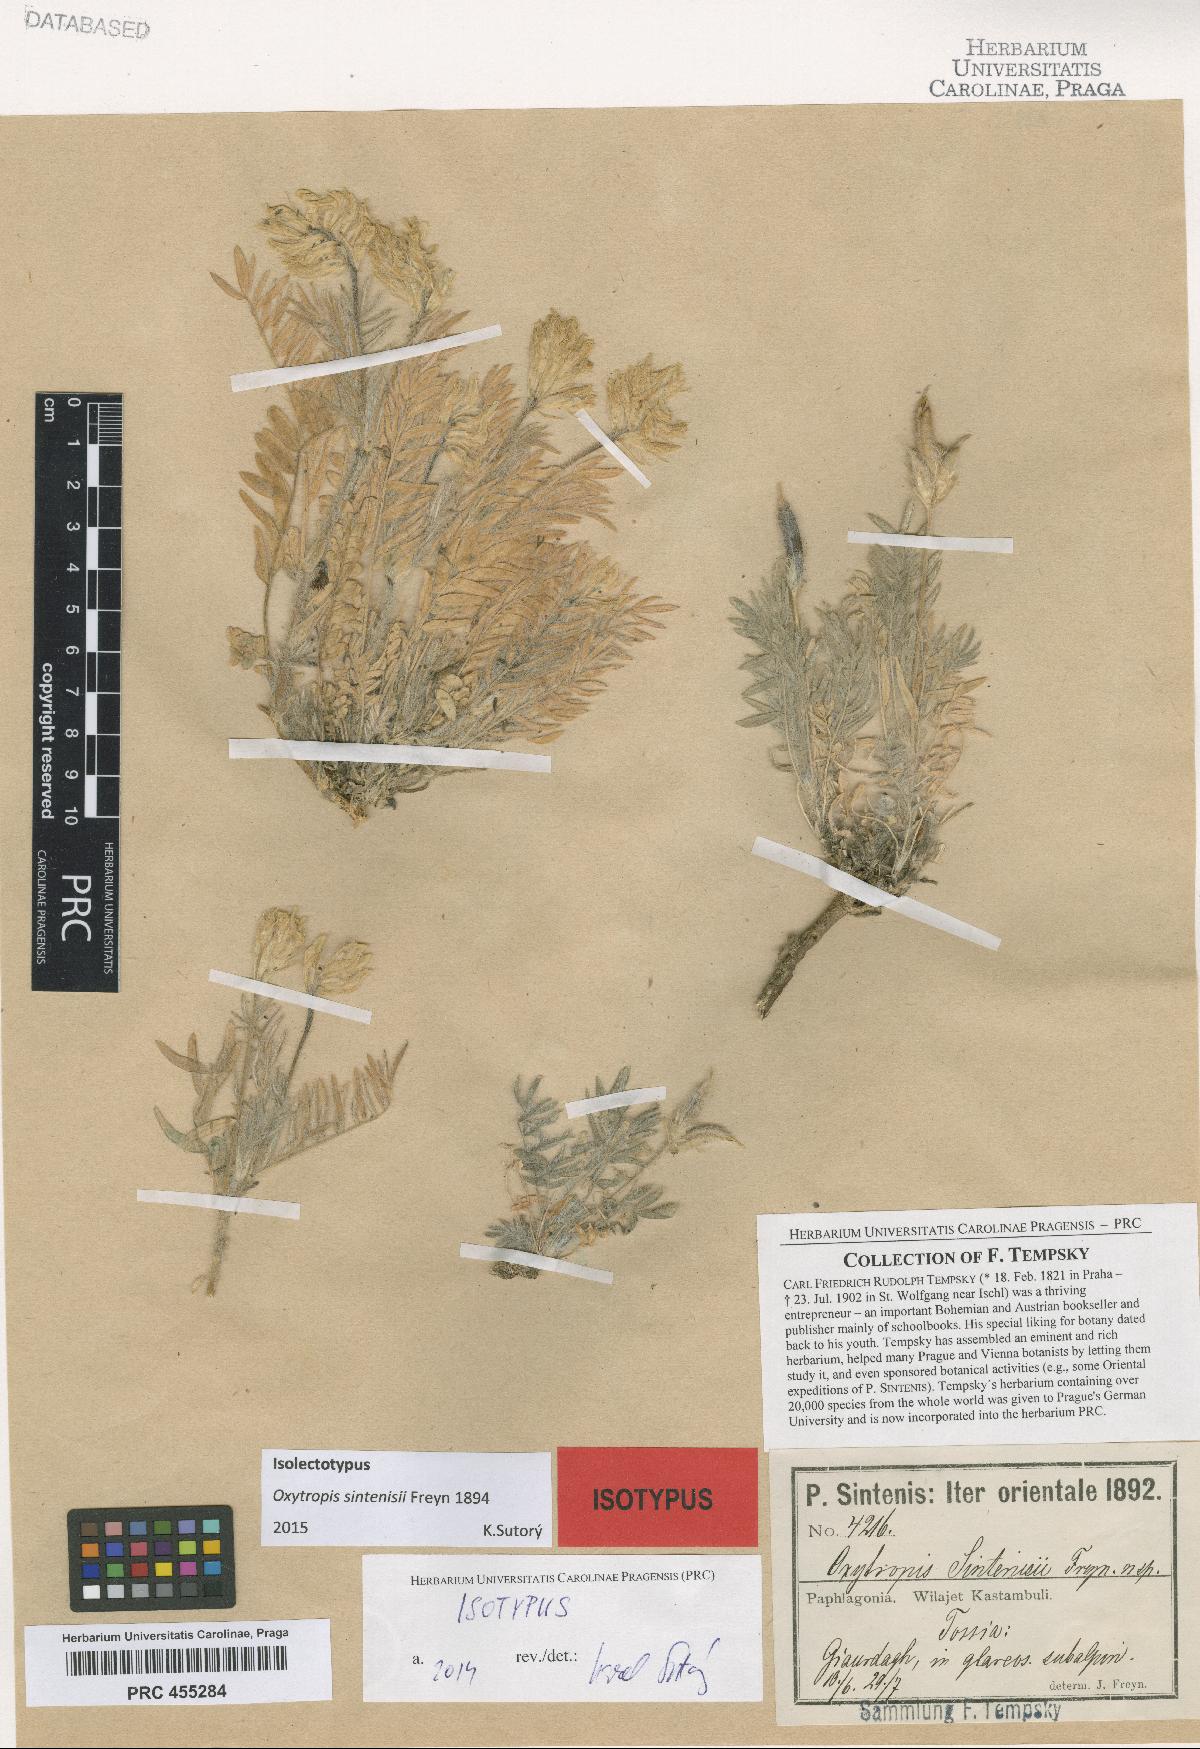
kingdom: Plantae
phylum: Tracheophyta
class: Magnoliopsida
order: Fabales
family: Fabaceae
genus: Oxytropis
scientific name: Oxytropis pallasii
